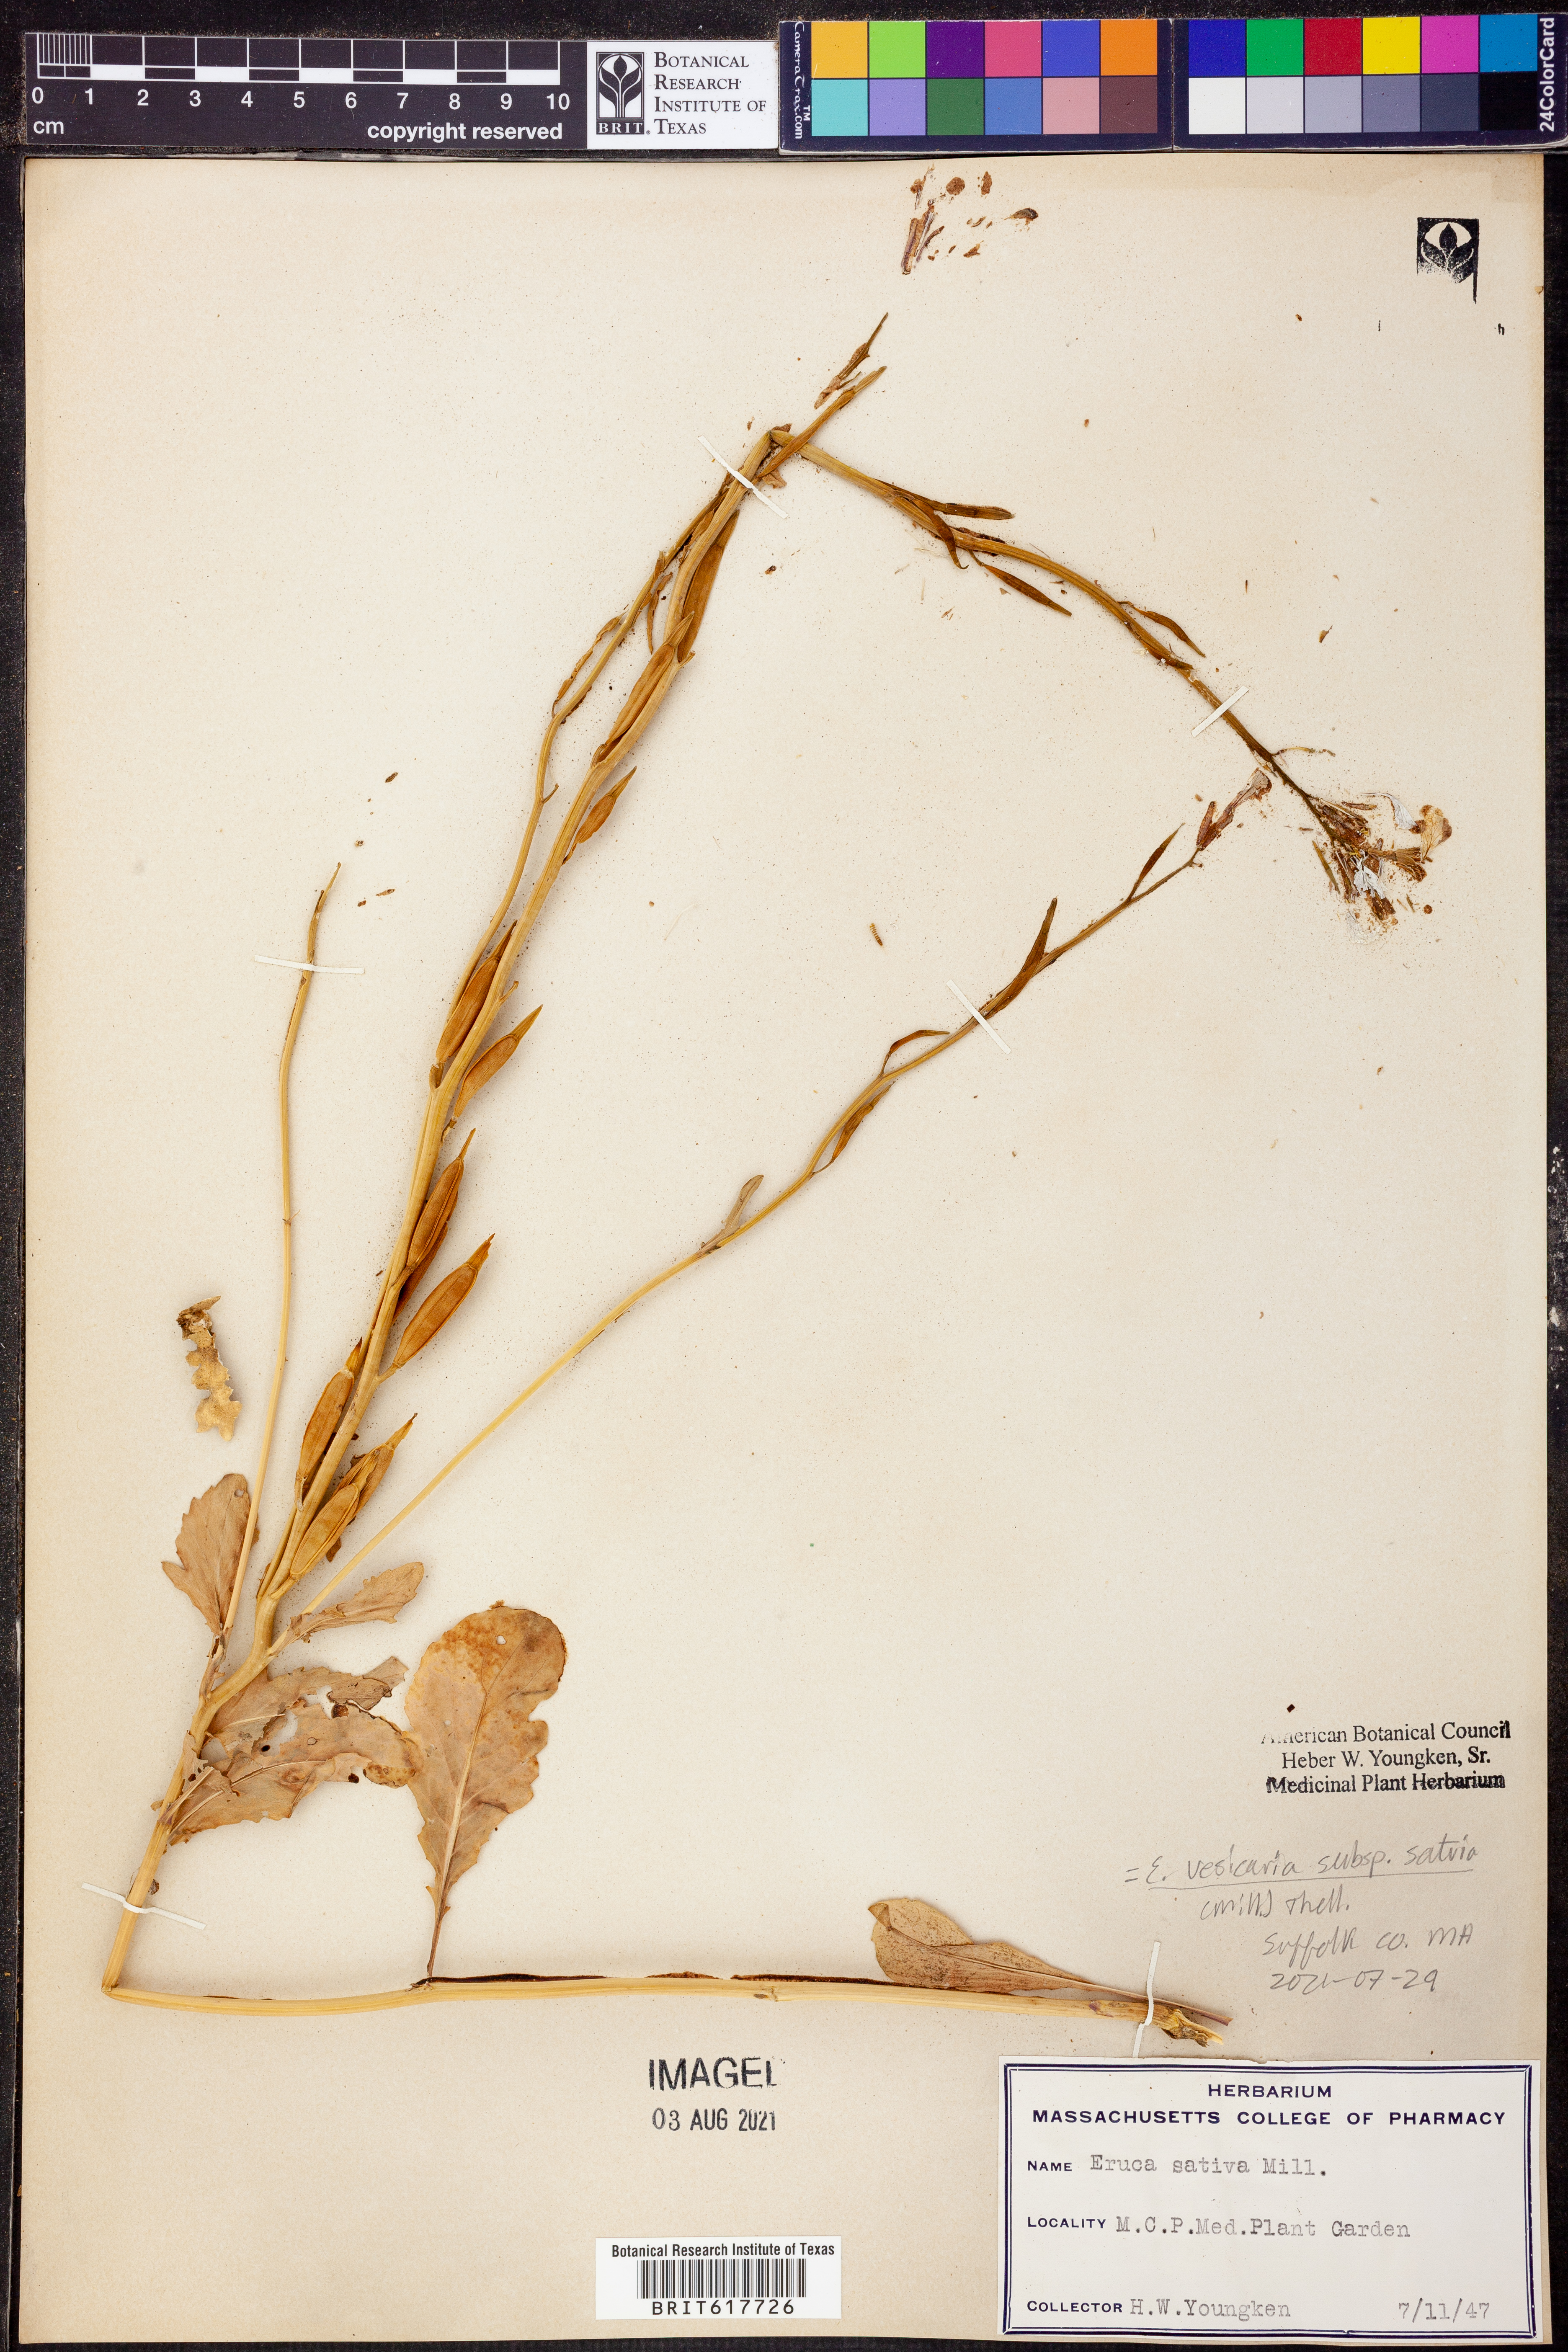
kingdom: Plantae
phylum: Tracheophyta
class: Magnoliopsida
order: Brassicales
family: Brassicaceae
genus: Eruca
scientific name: Eruca vesicaria
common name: Garden rocket
